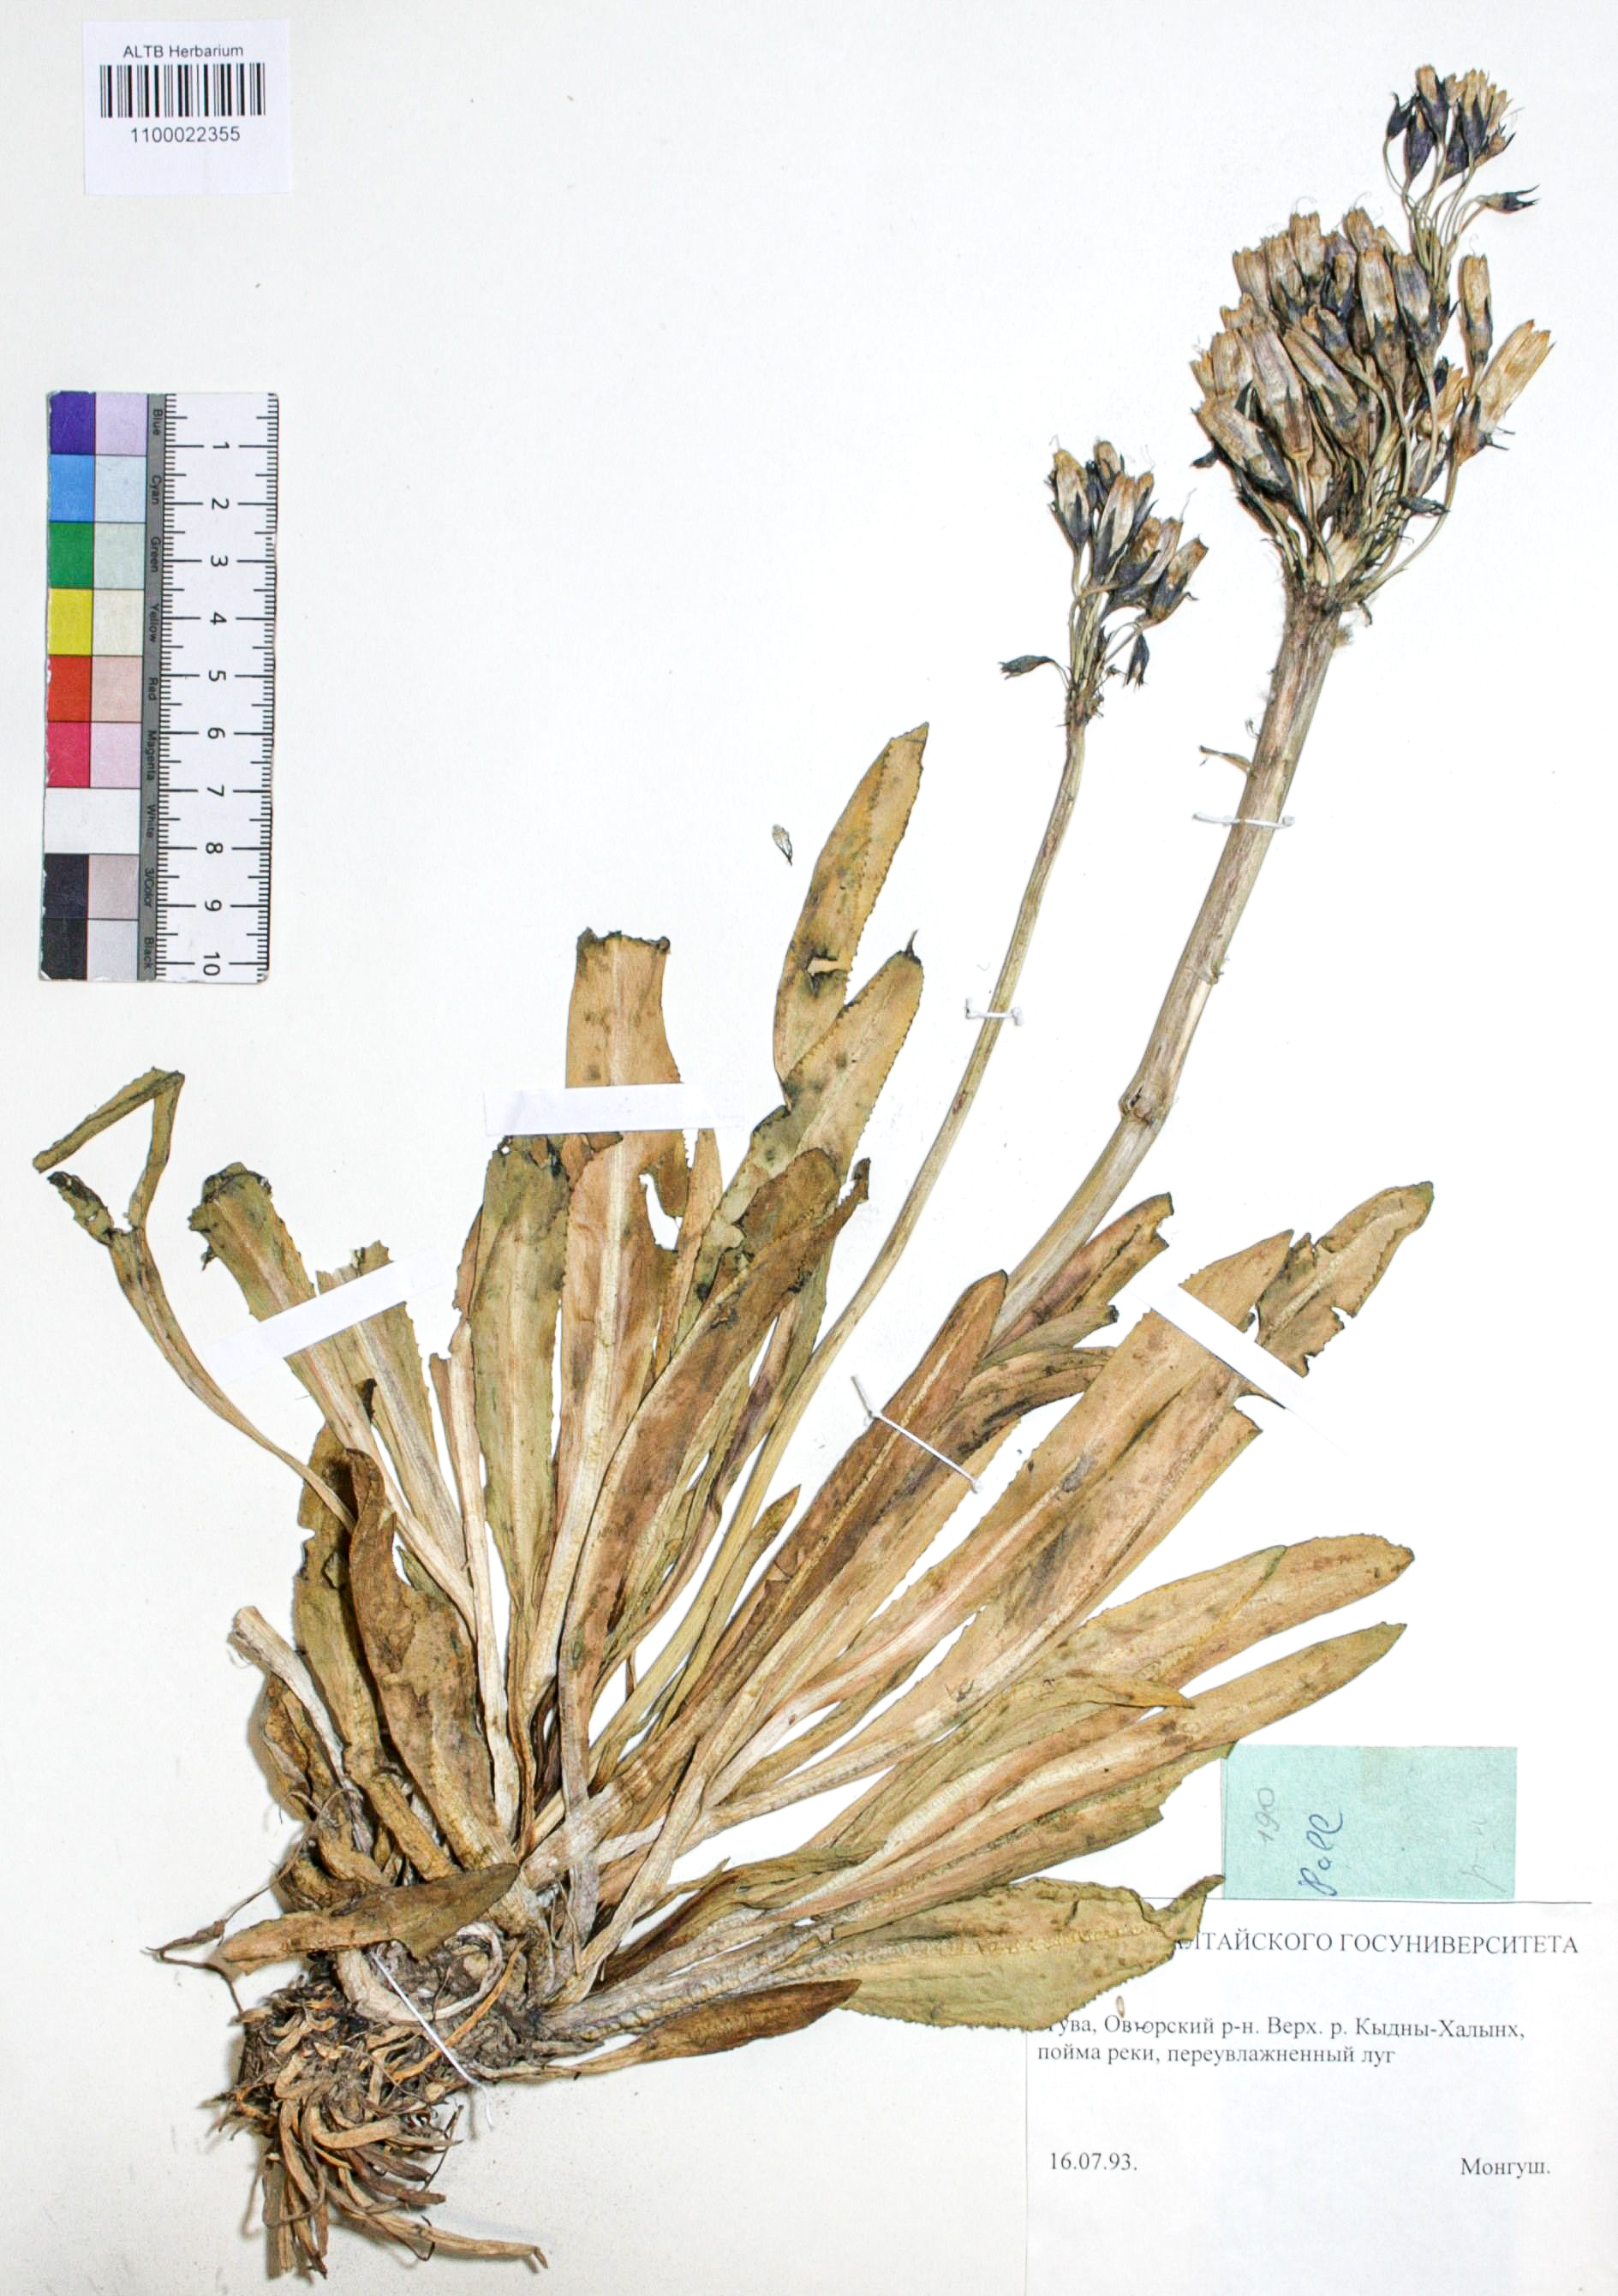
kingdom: Plantae
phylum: Tracheophyta
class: Magnoliopsida
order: Ericales
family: Primulaceae
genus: Primula
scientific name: Primula nivalis
